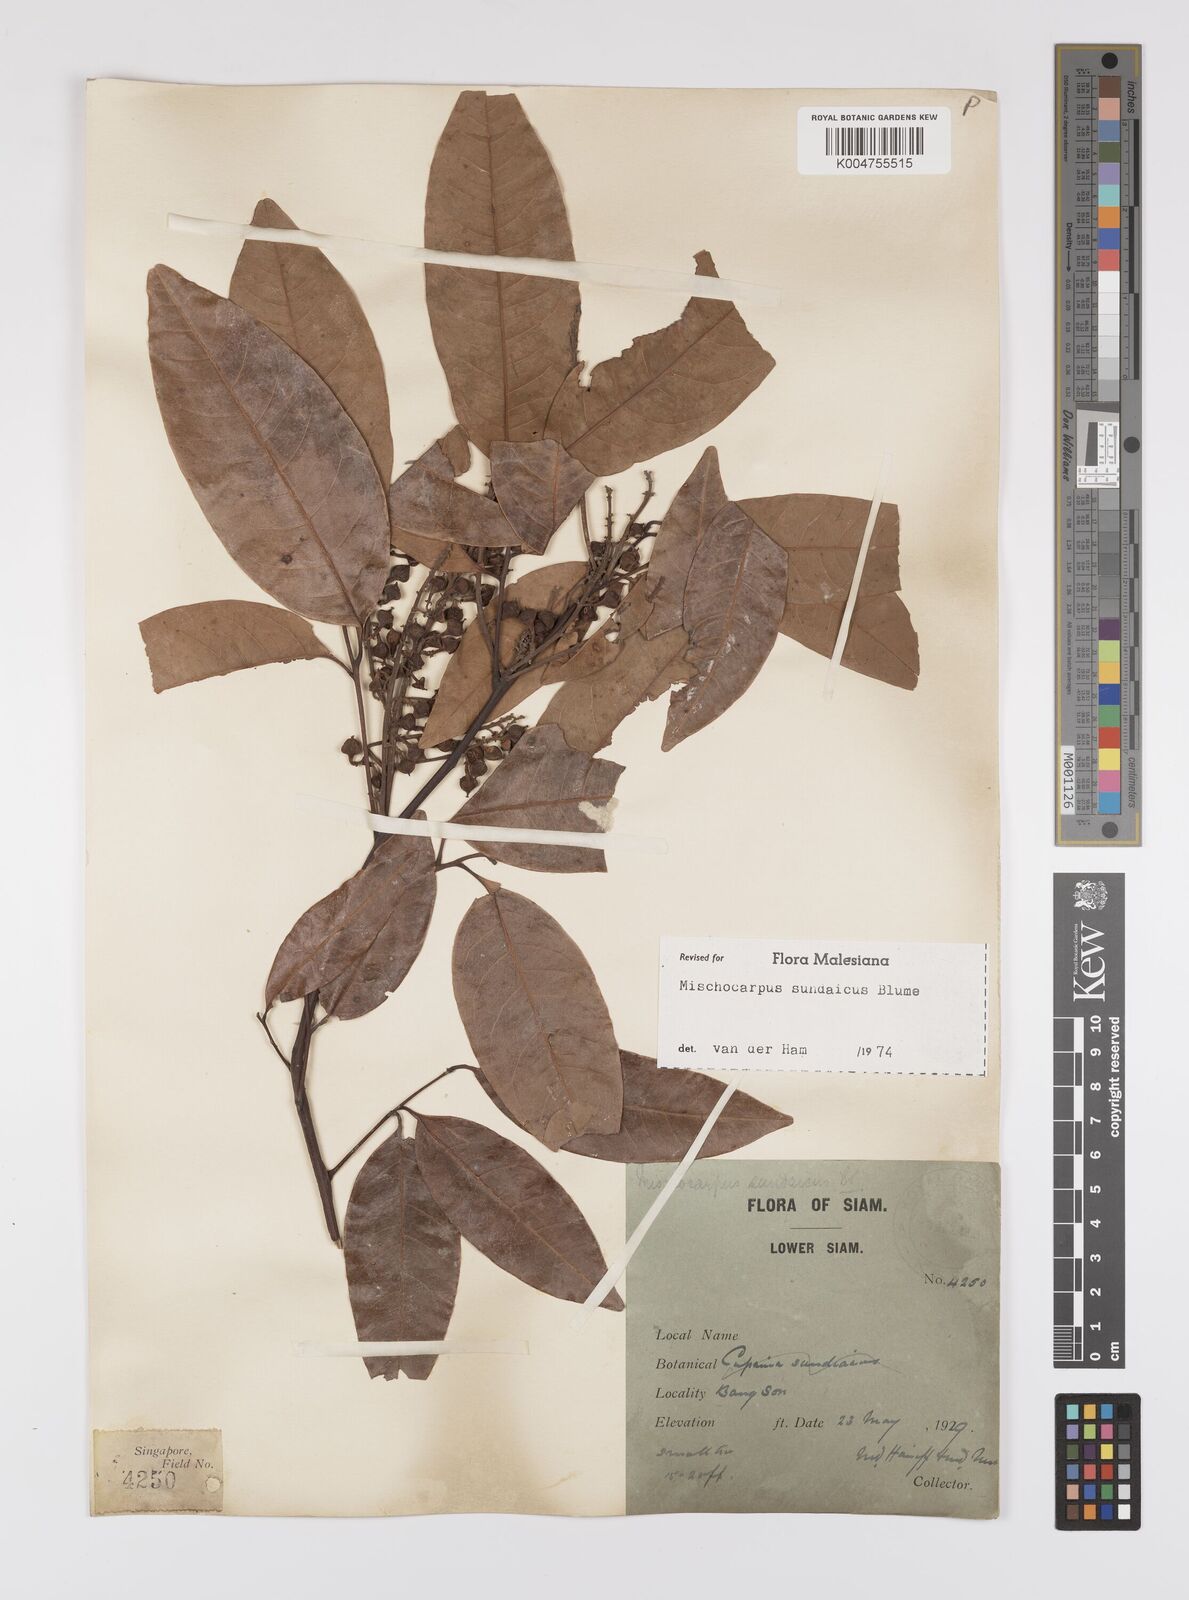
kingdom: Plantae
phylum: Tracheophyta
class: Magnoliopsida
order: Sapindales
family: Sapindaceae
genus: Mischocarpus
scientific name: Mischocarpus sundaicus
